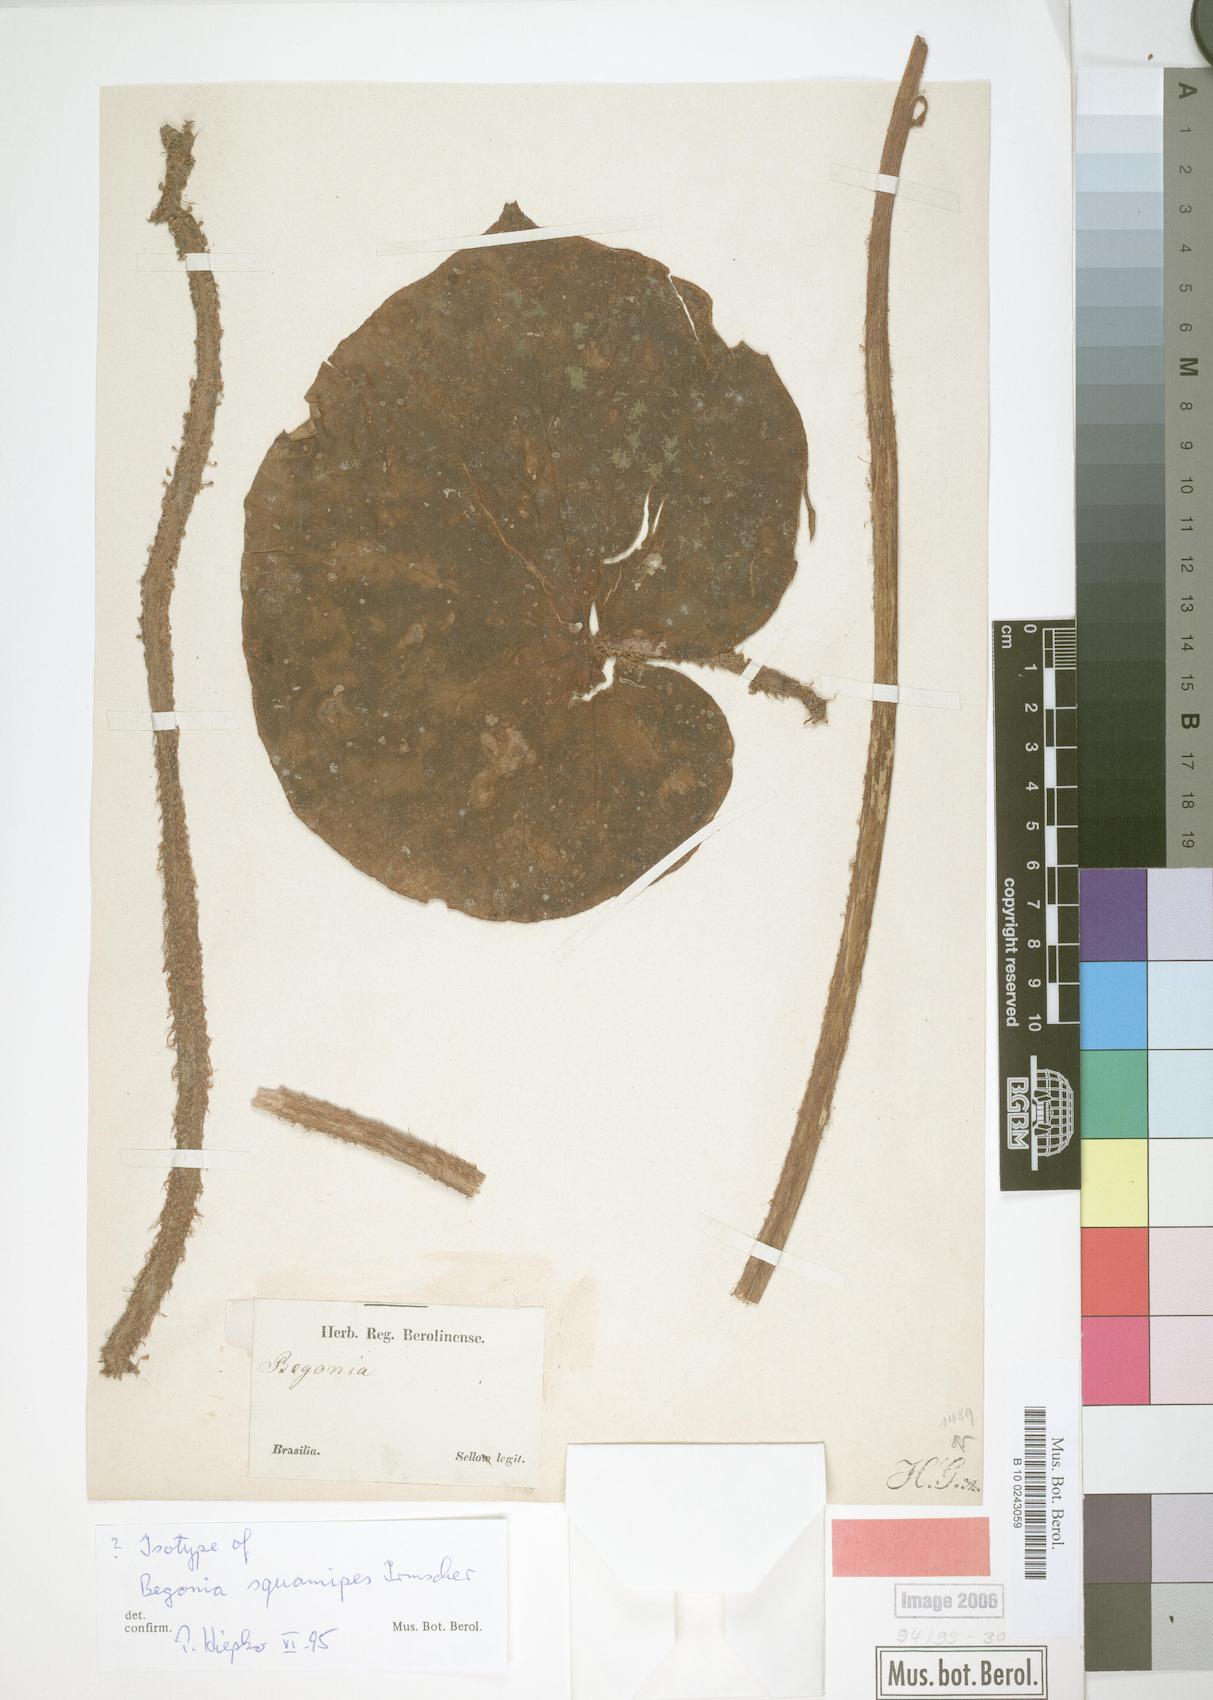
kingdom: Plantae
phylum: Tracheophyta
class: Magnoliopsida
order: Cucurbitales
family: Begoniaceae
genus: Begonia
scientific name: Begonia squamipes
